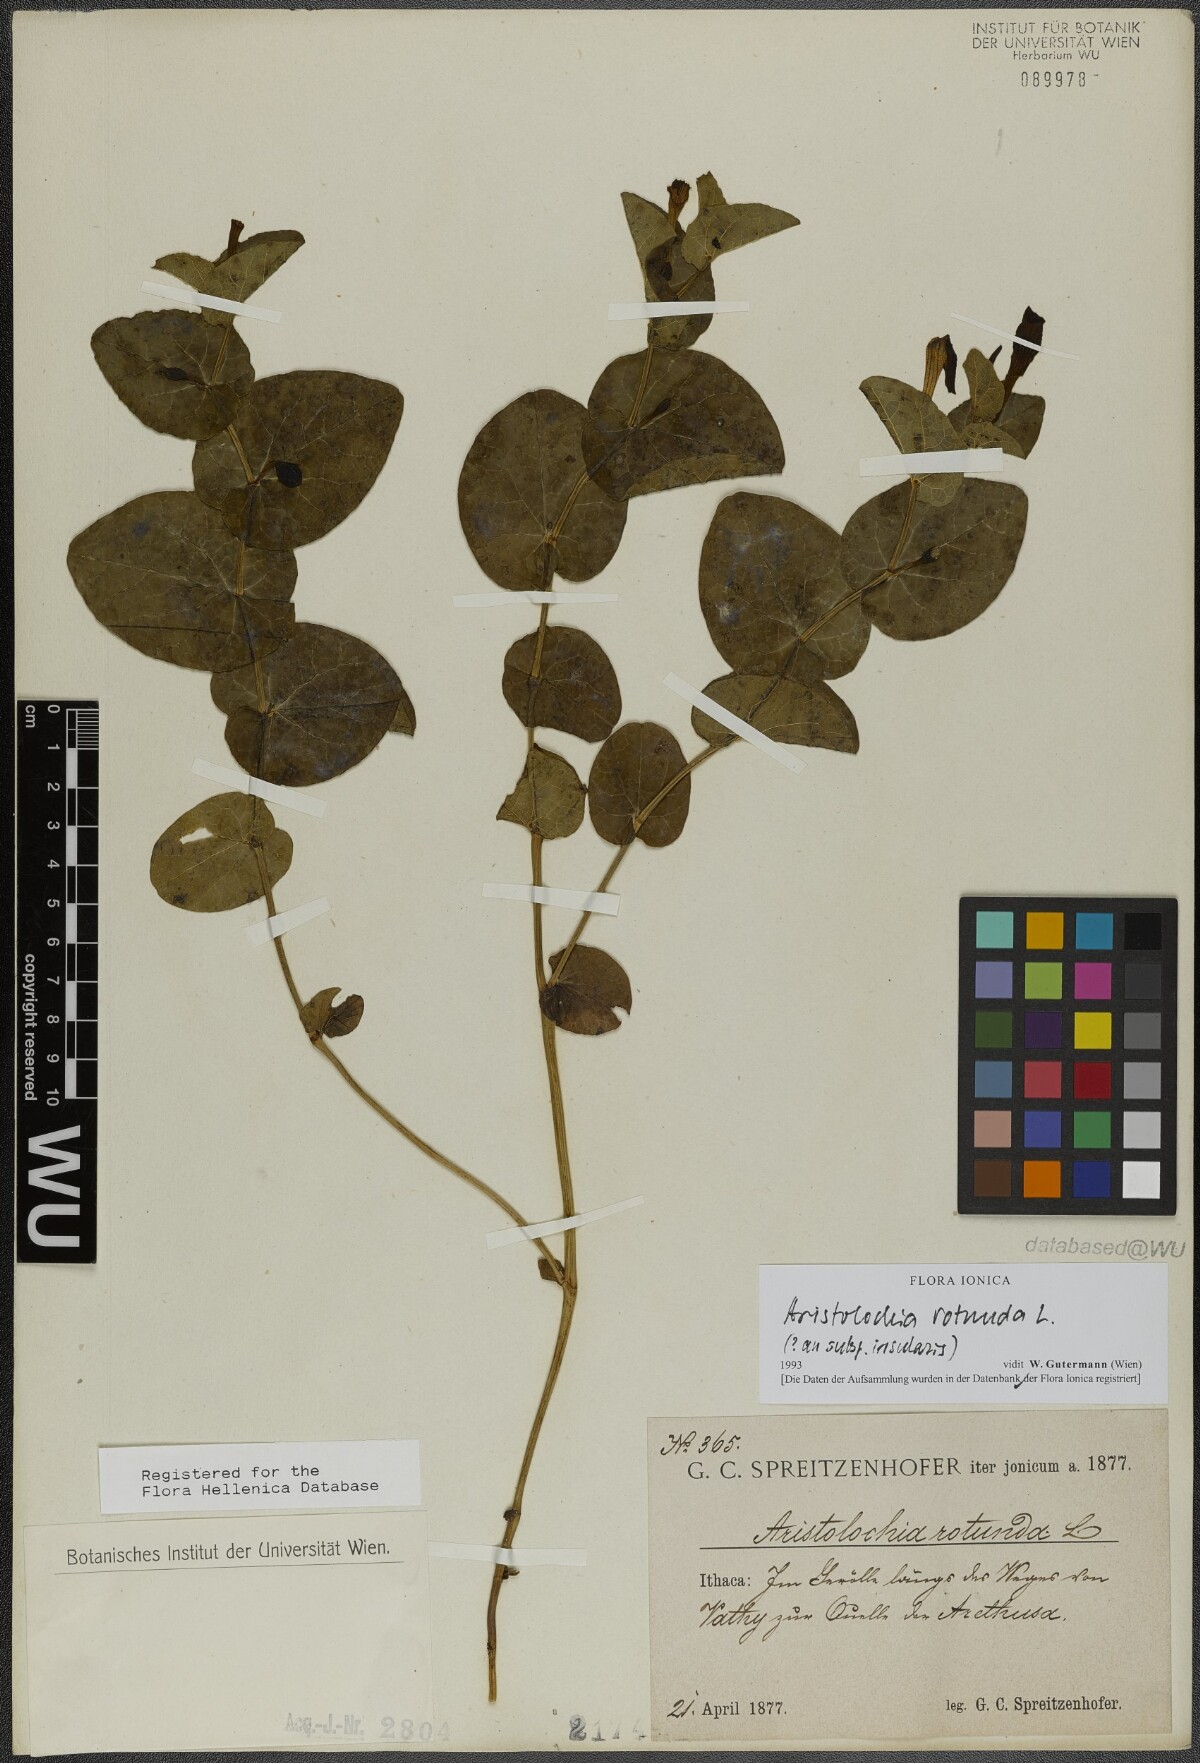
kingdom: Plantae
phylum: Tracheophyta
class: Magnoliopsida
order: Piperales
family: Aristolochiaceae
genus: Aristolochia
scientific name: Aristolochia rotunda
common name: Smearwort
